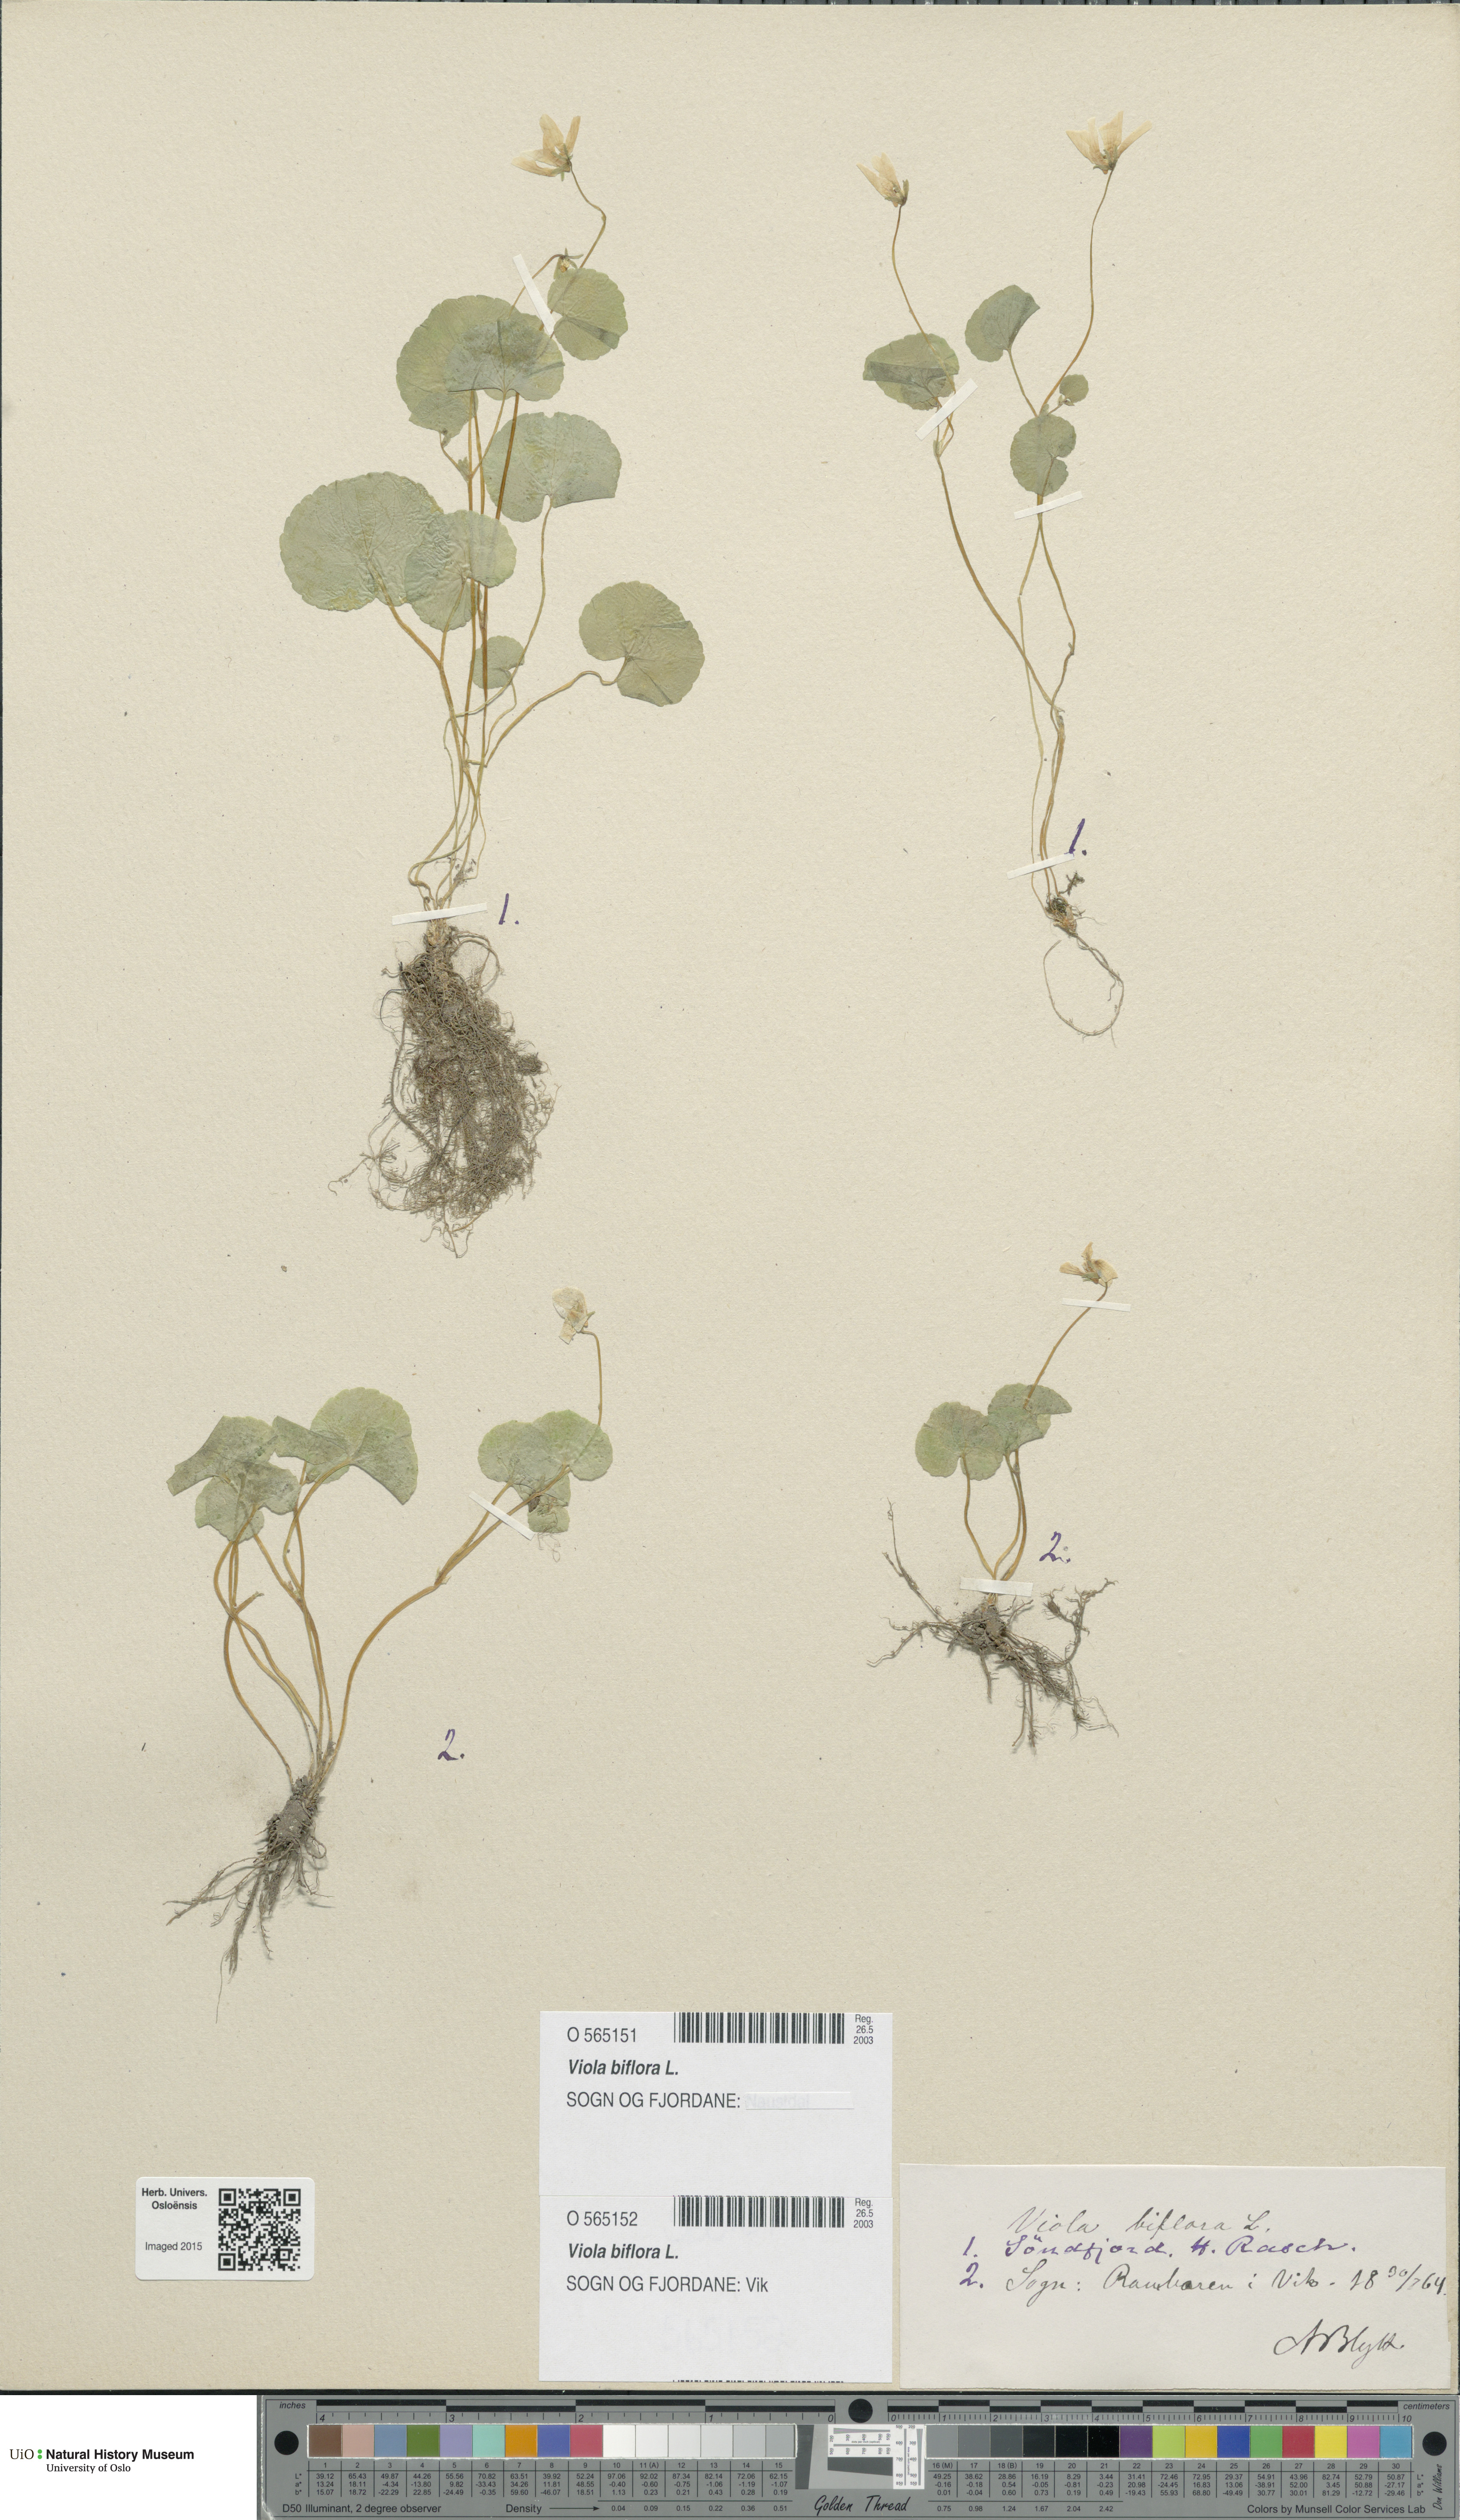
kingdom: Plantae
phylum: Tracheophyta
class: Magnoliopsida
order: Malpighiales
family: Violaceae
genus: Viola
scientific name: Viola biflora
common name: Alpine yellow violet
